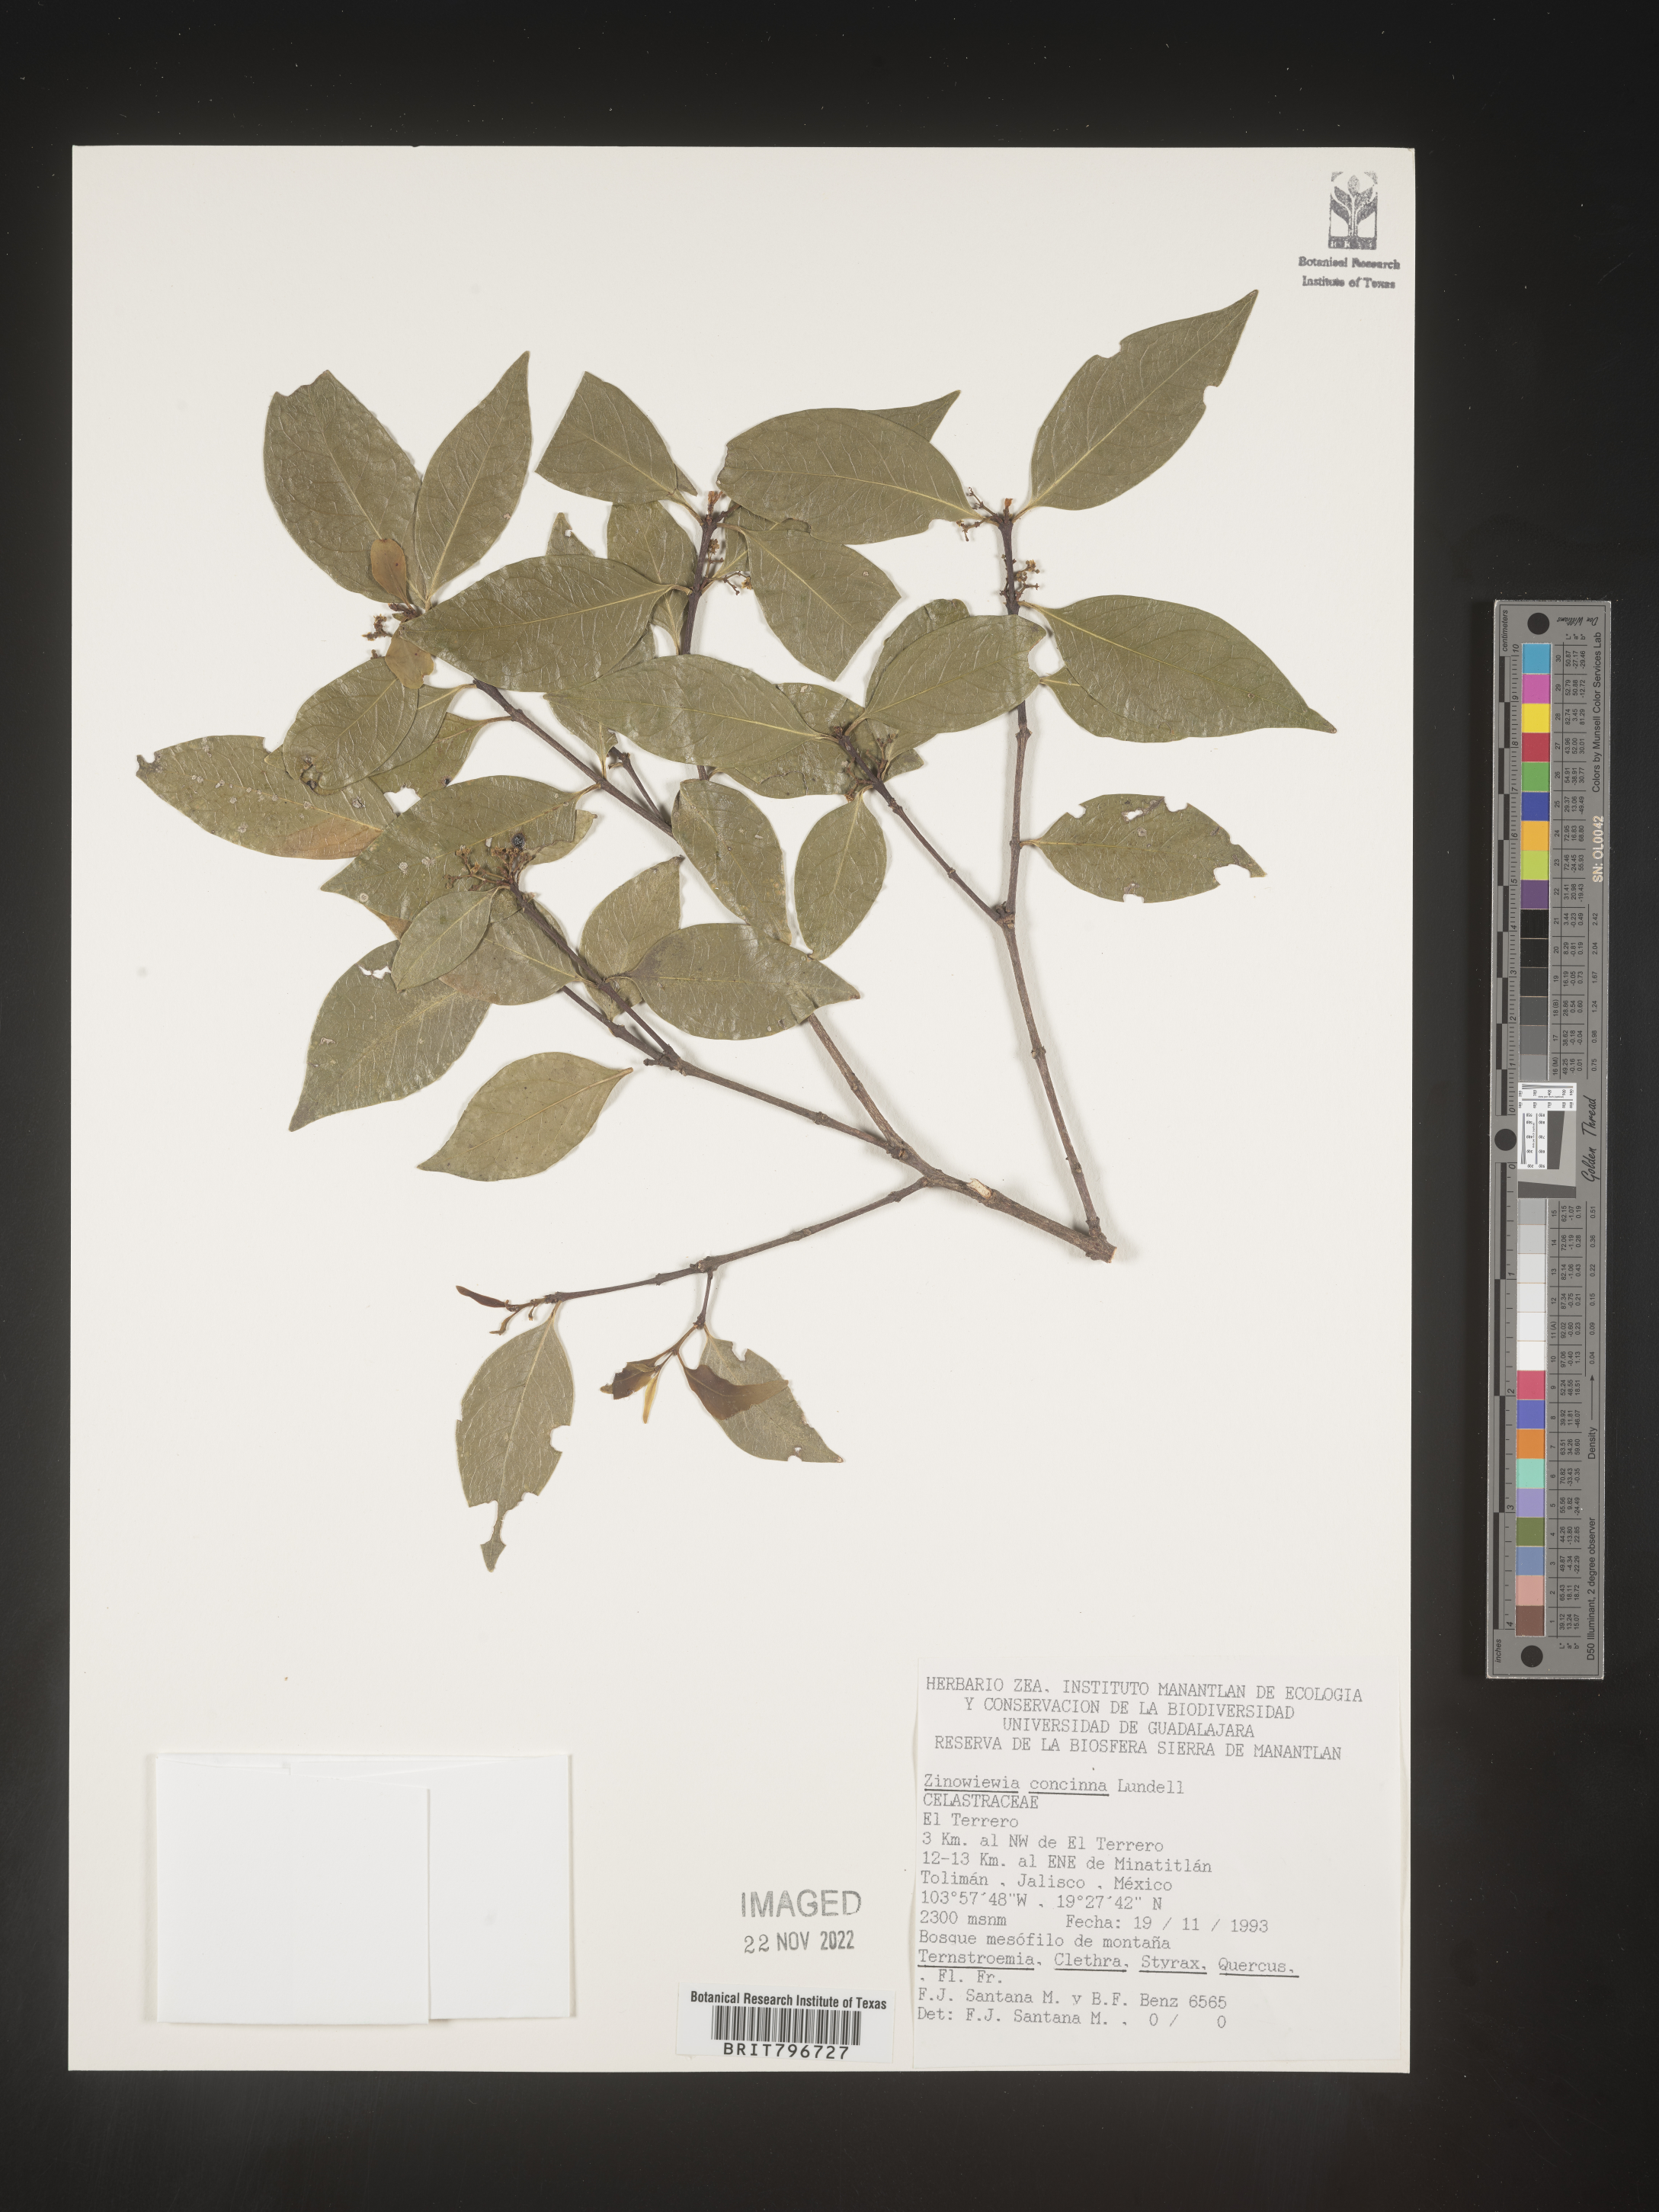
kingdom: Plantae
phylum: Tracheophyta
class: Magnoliopsida
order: Celastrales
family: Celastraceae
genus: Zinowiewia
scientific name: Zinowiewia
